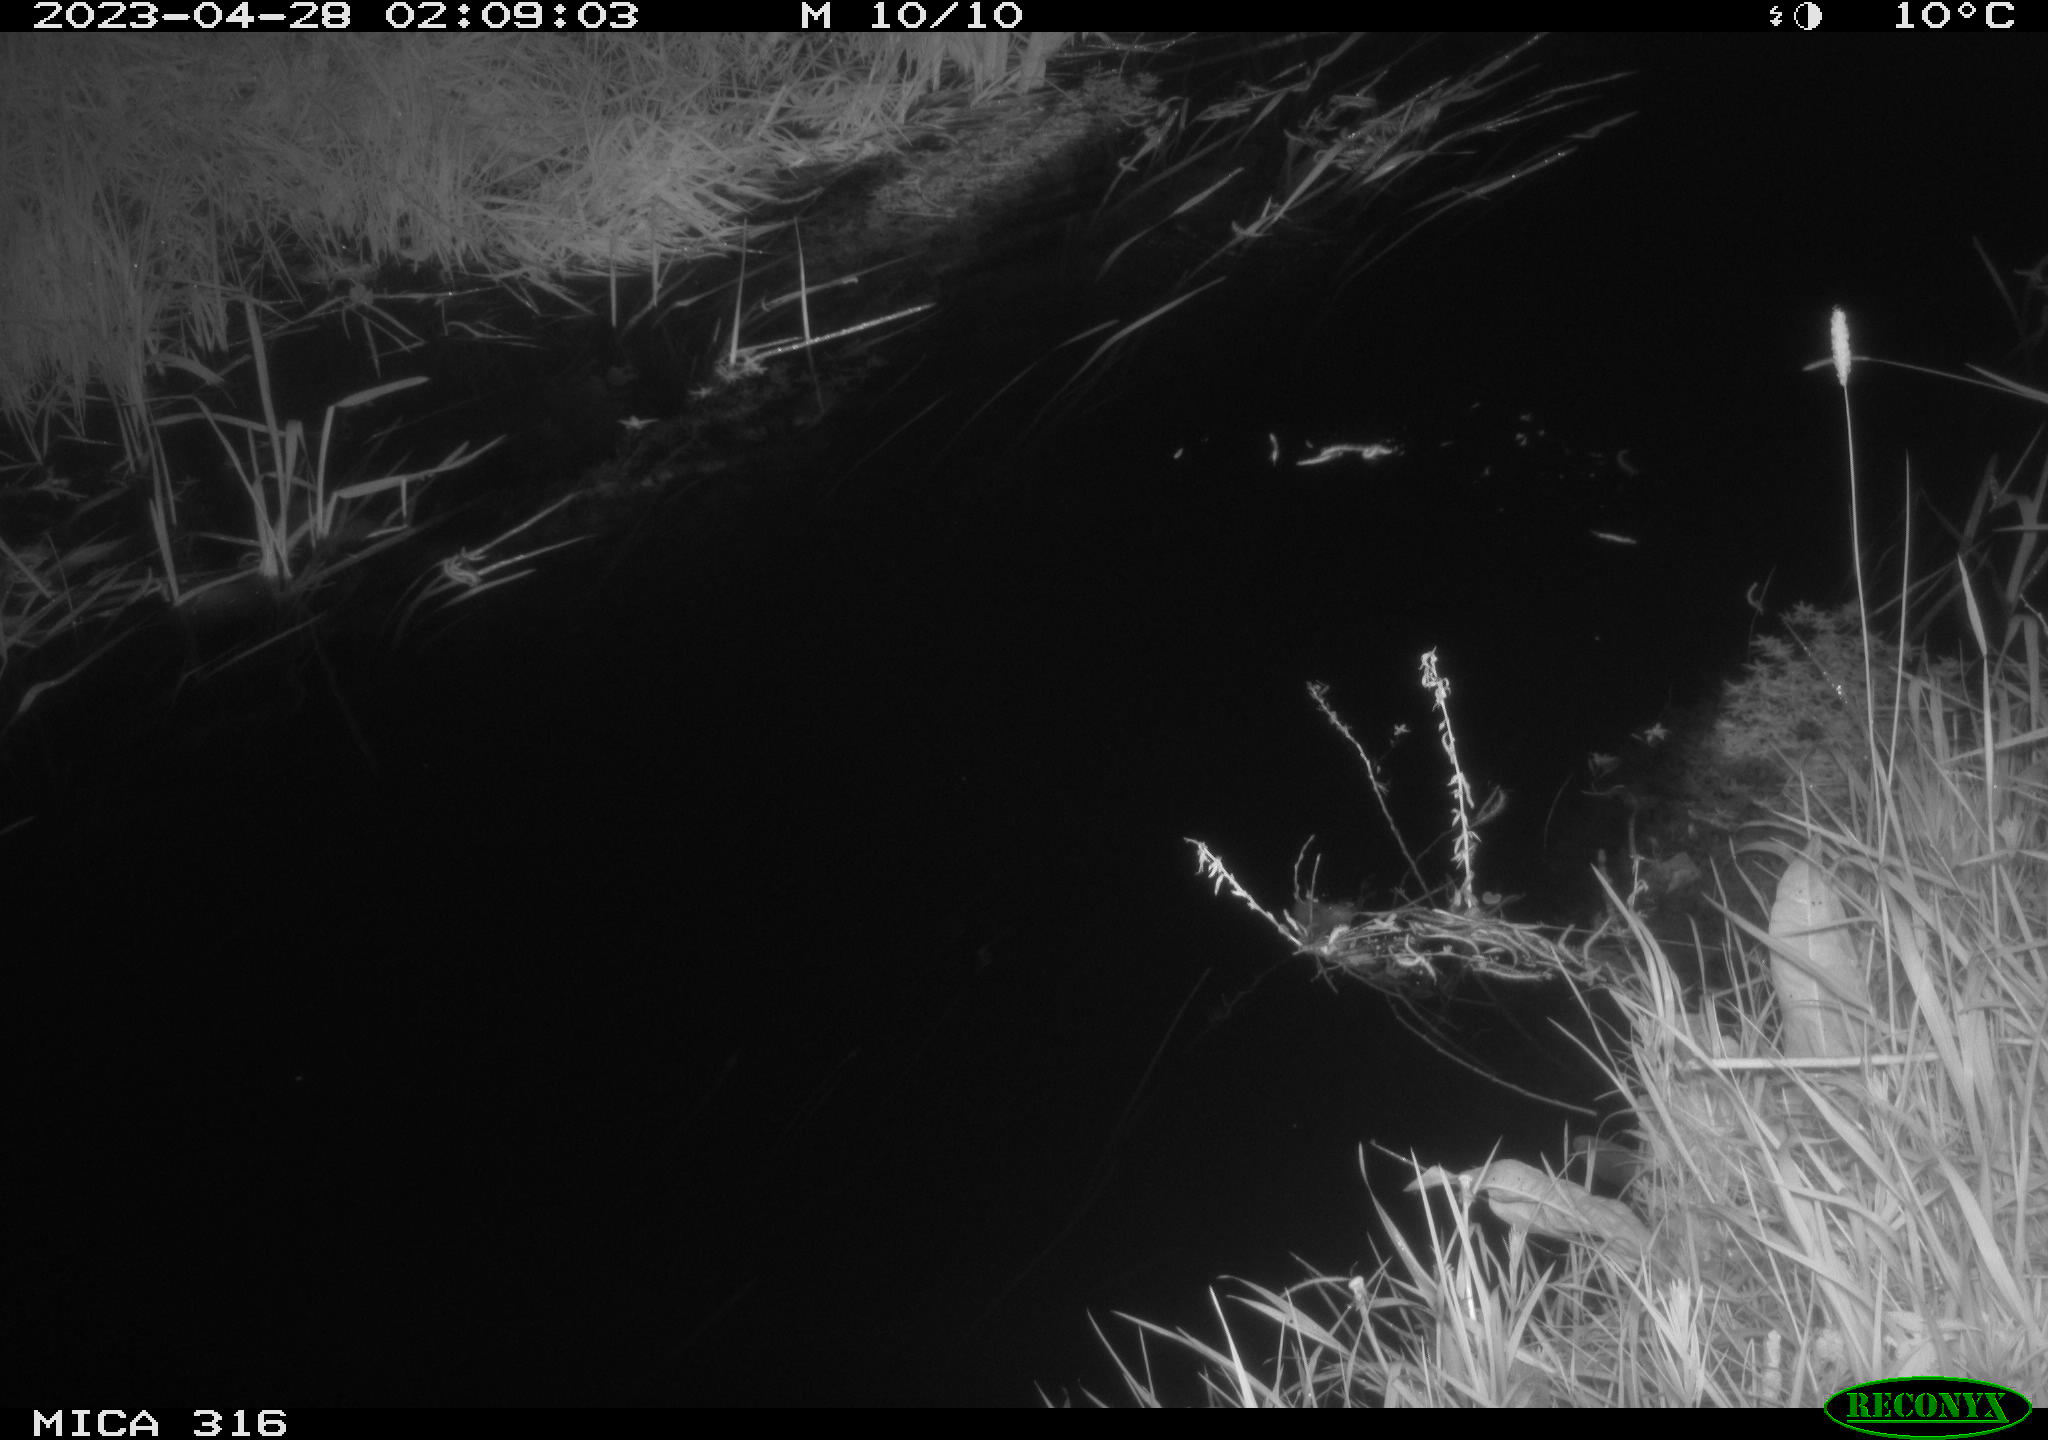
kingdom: Animalia
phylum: Chordata
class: Mammalia
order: Rodentia
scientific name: Rodentia
